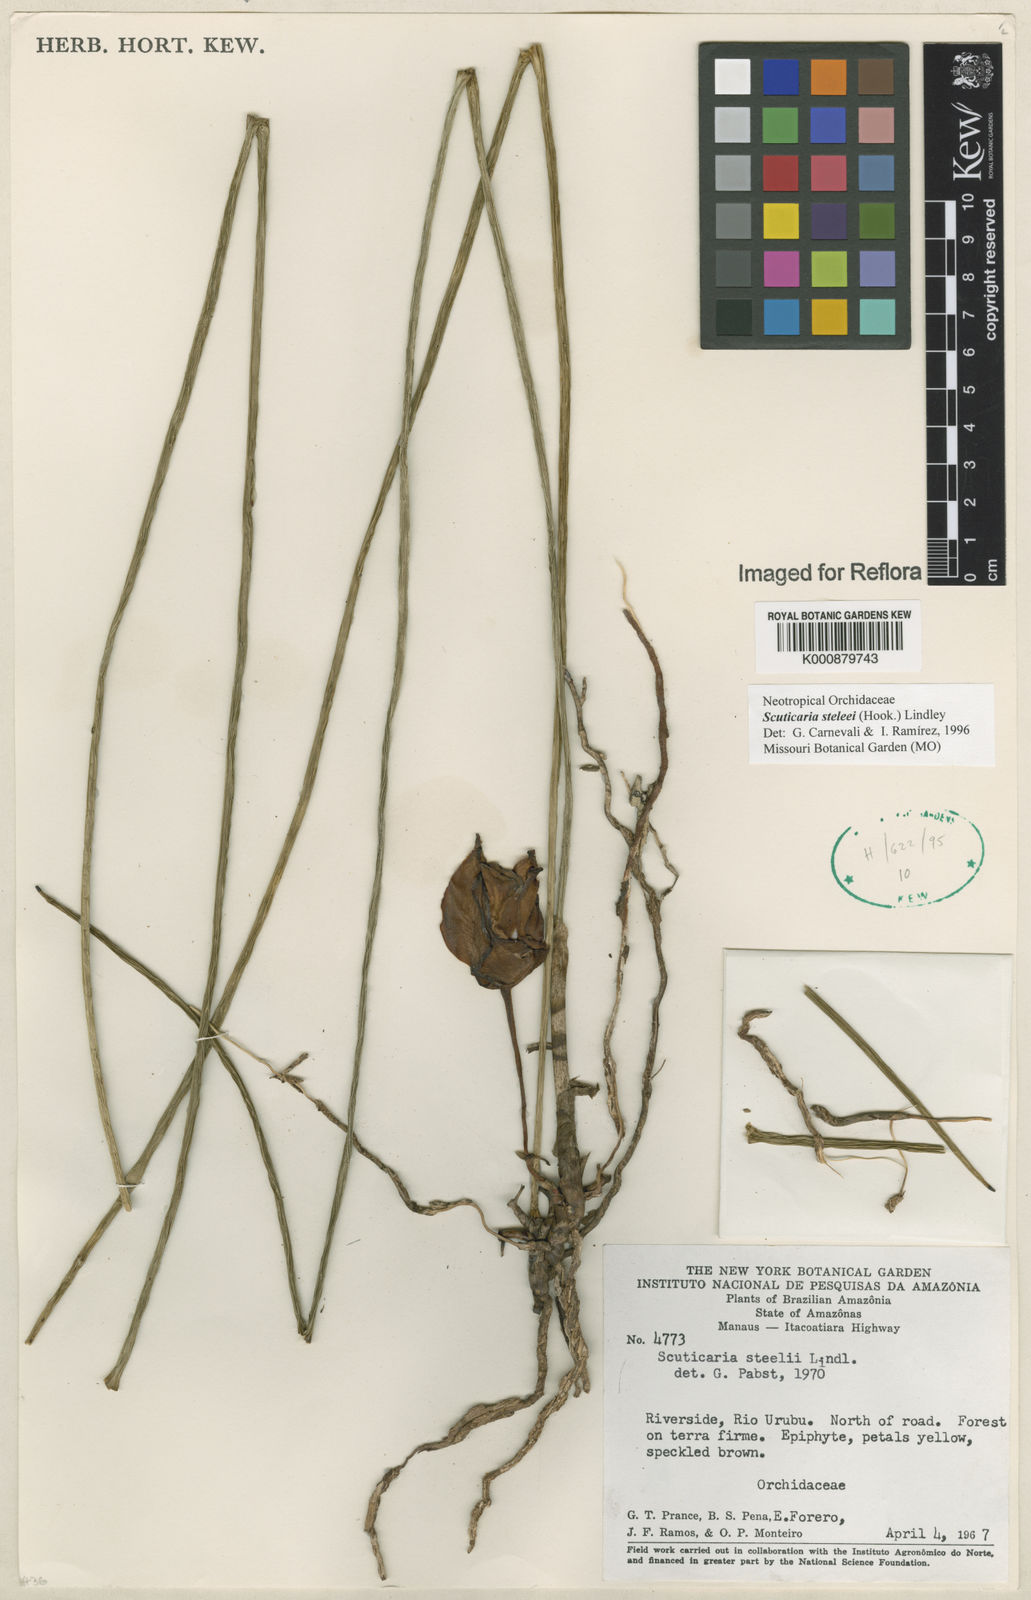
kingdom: Plantae
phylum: Tracheophyta
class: Liliopsida
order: Asparagales
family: Orchidaceae
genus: Scuticaria
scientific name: Scuticaria steelei
